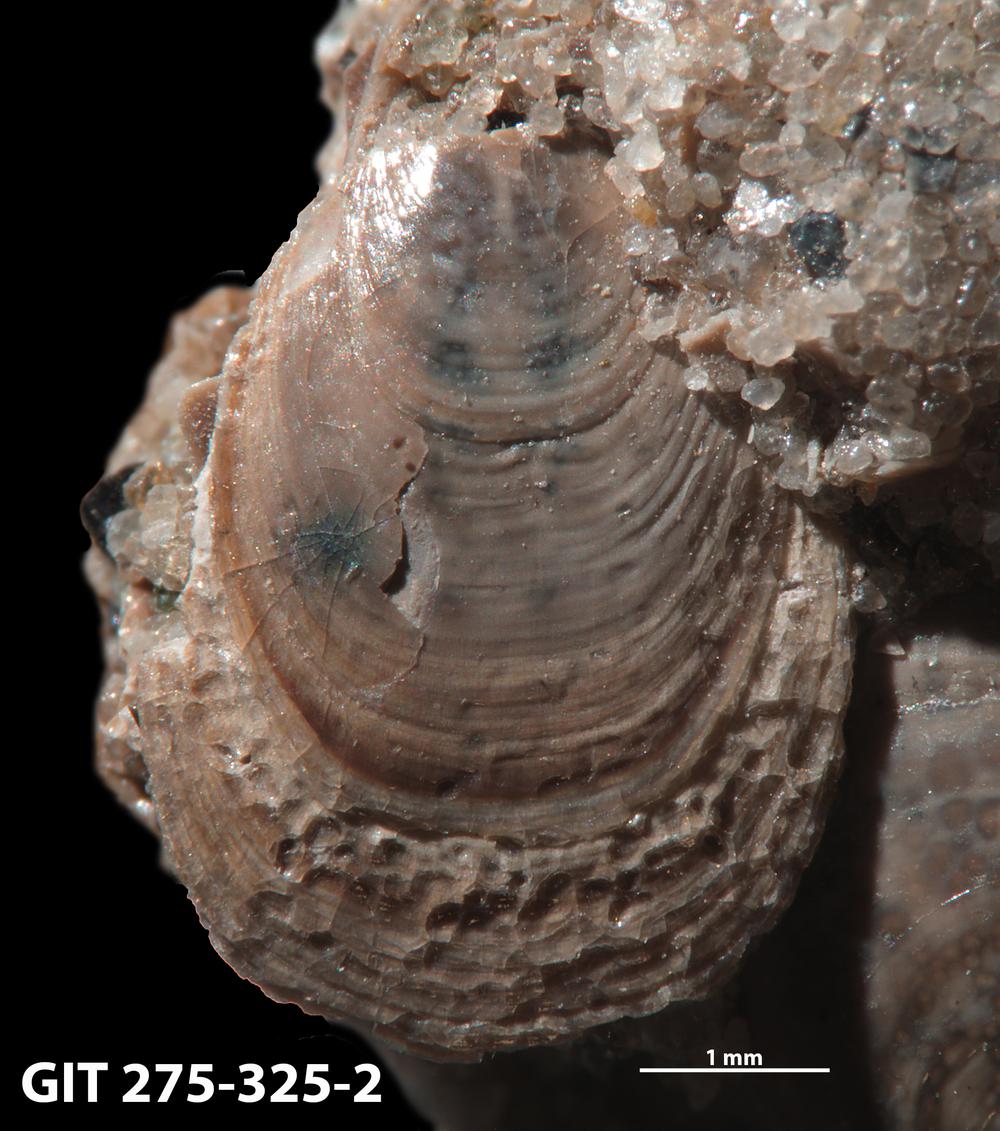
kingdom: Animalia
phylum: Porifera
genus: Ungula
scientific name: Ungula
